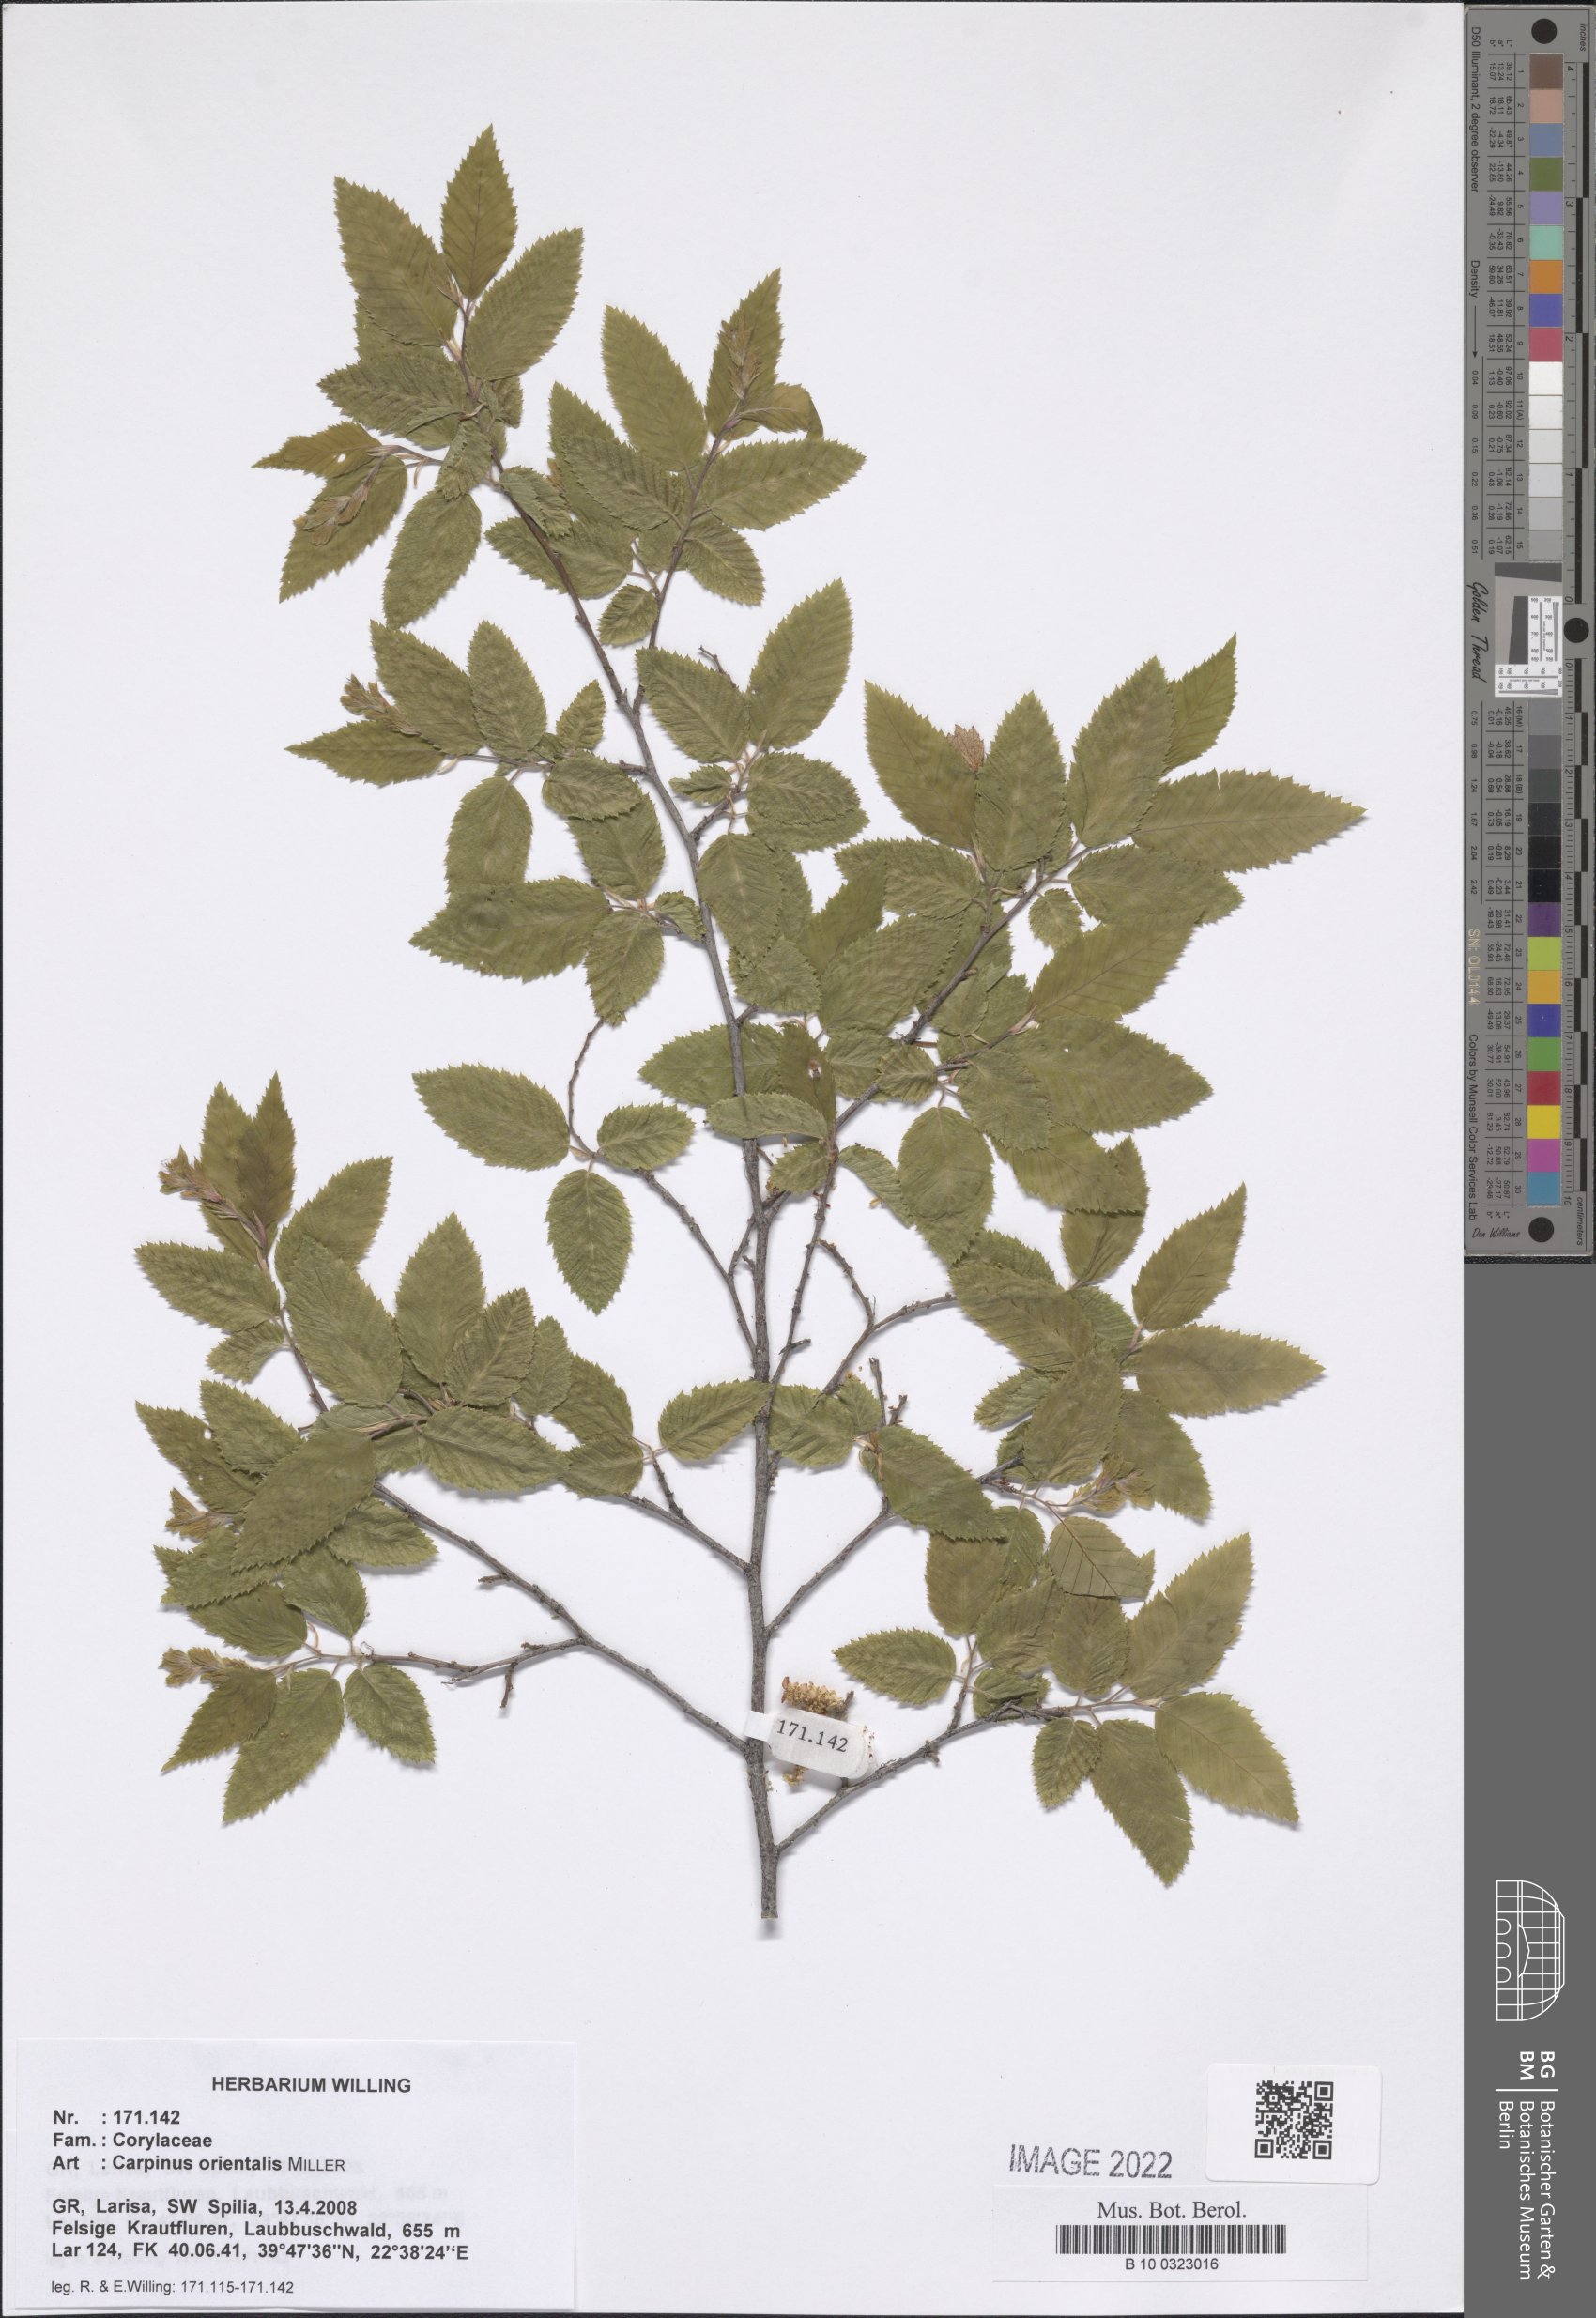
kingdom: Plantae
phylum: Tracheophyta
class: Magnoliopsida
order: Fagales
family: Betulaceae
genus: Carpinus
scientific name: Carpinus orientalis
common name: Eastern hornbeam
